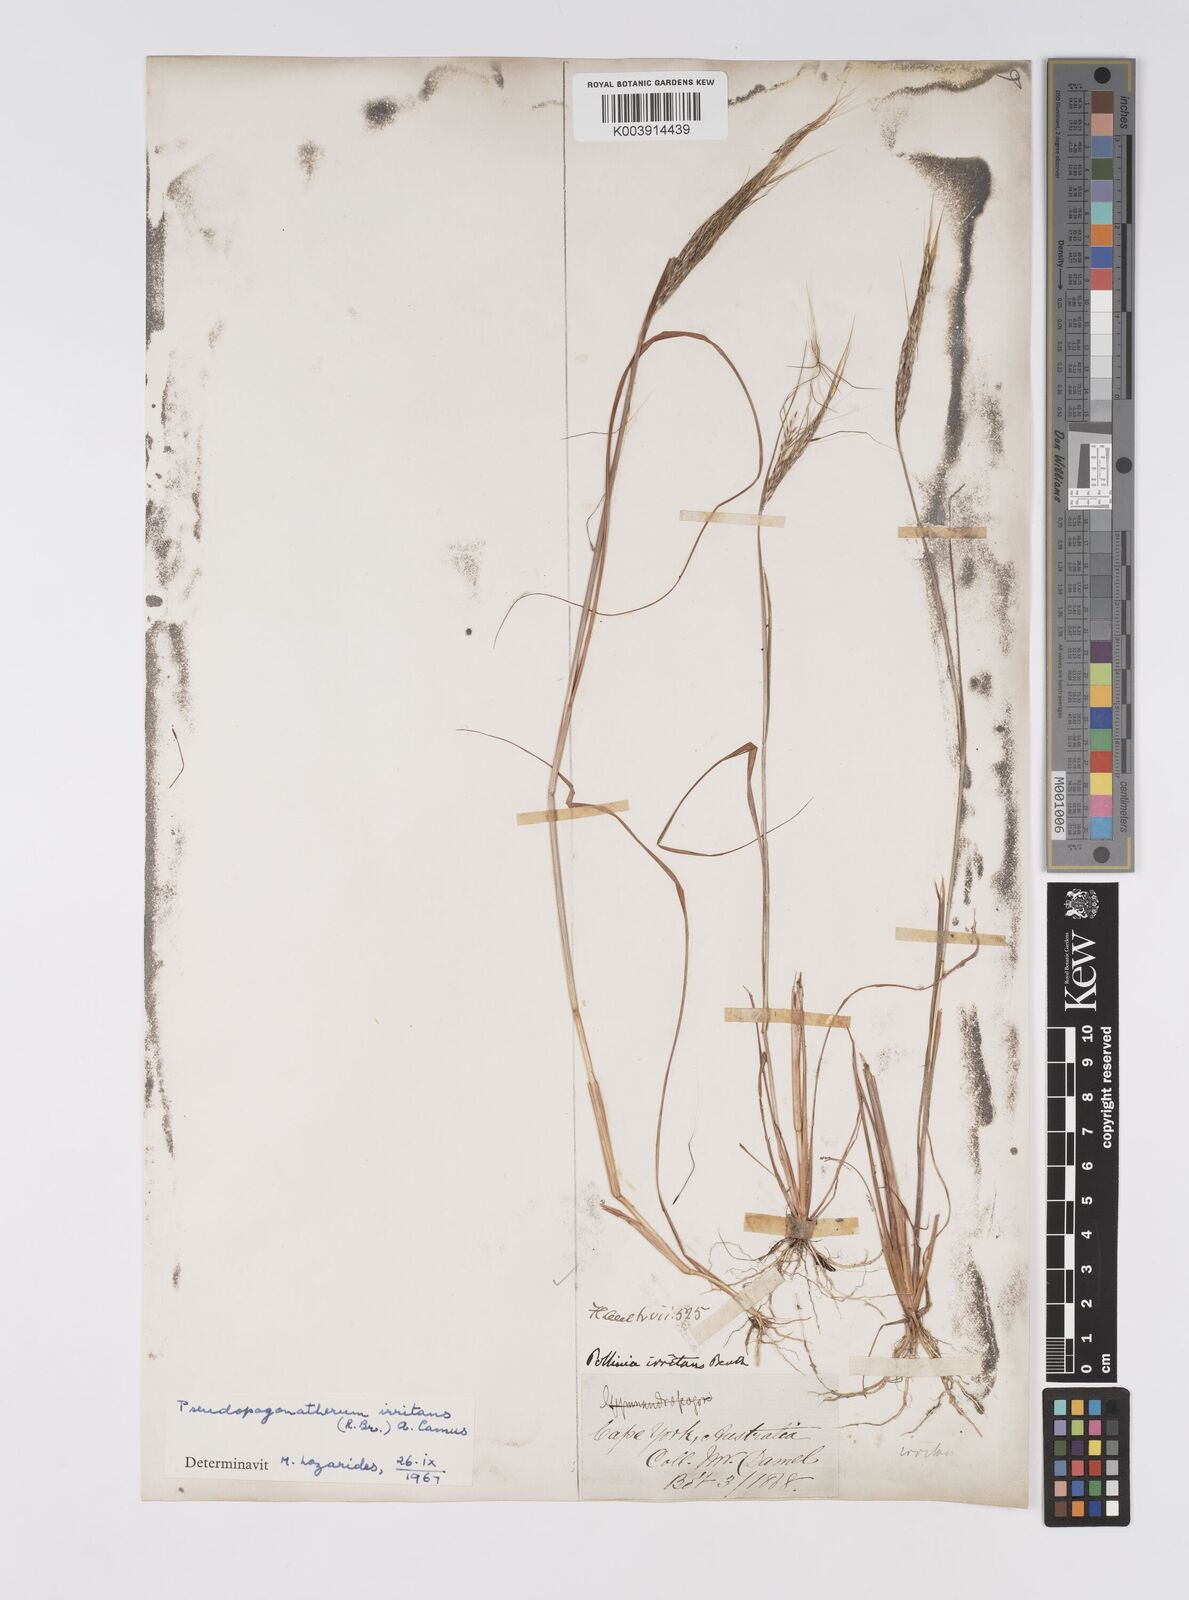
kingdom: Plantae
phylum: Tracheophyta
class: Liliopsida
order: Poales
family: Poaceae
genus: Pseudopogonatherum
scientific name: Pseudopogonatherum irritans
